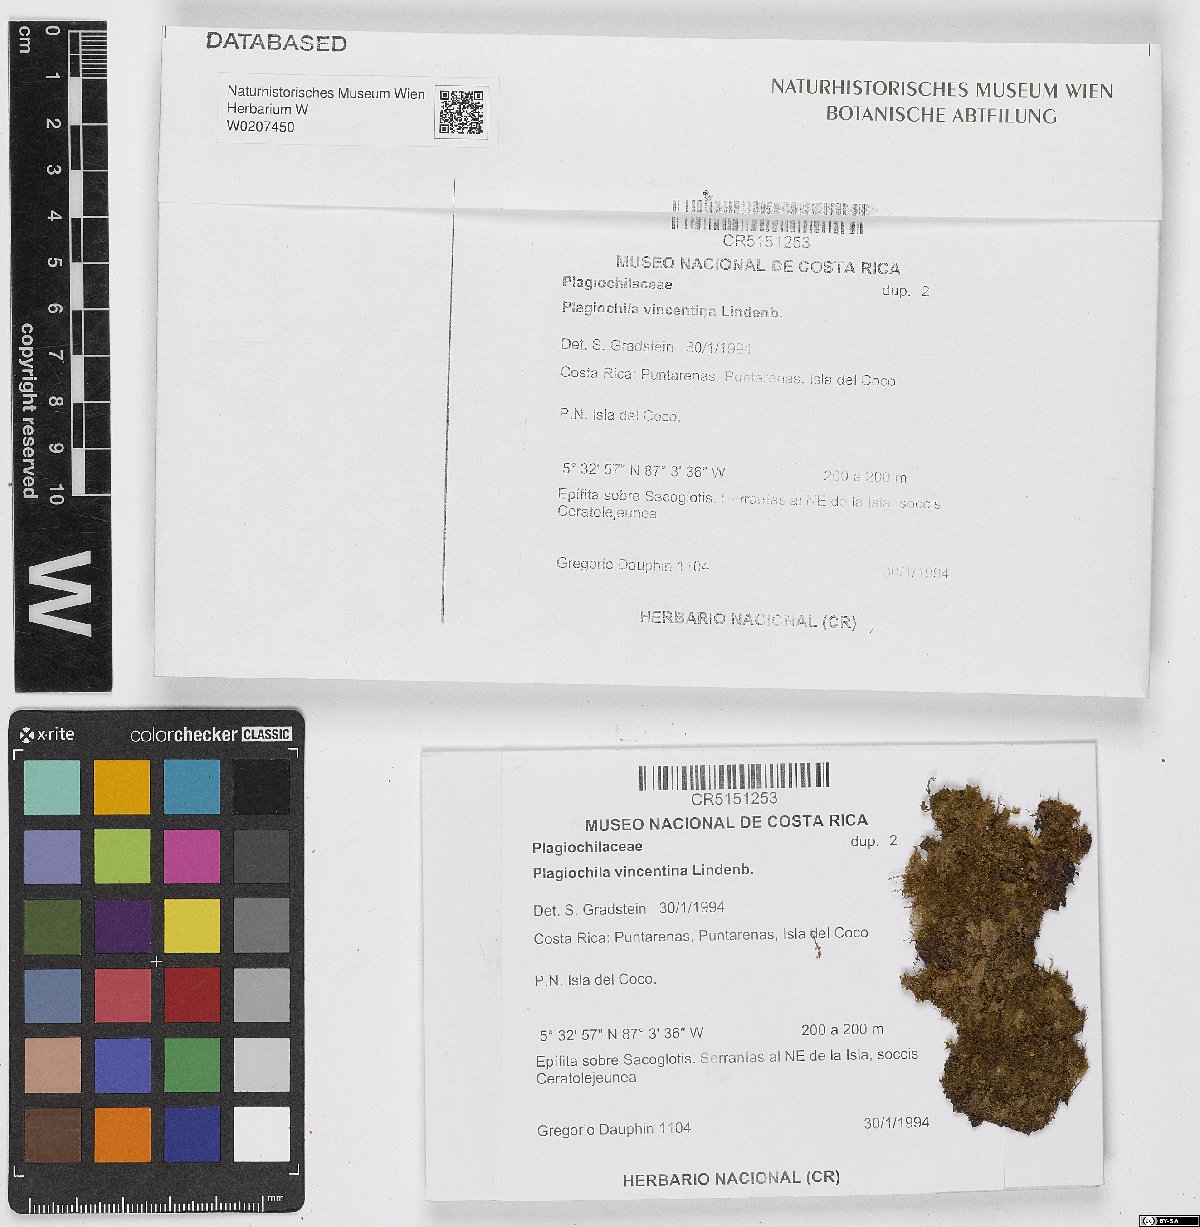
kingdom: Plantae
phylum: Marchantiophyta
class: Jungermanniopsida
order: Jungermanniales
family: Plagiochilaceae
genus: Plagiochila
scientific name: Plagiochila vincentina
